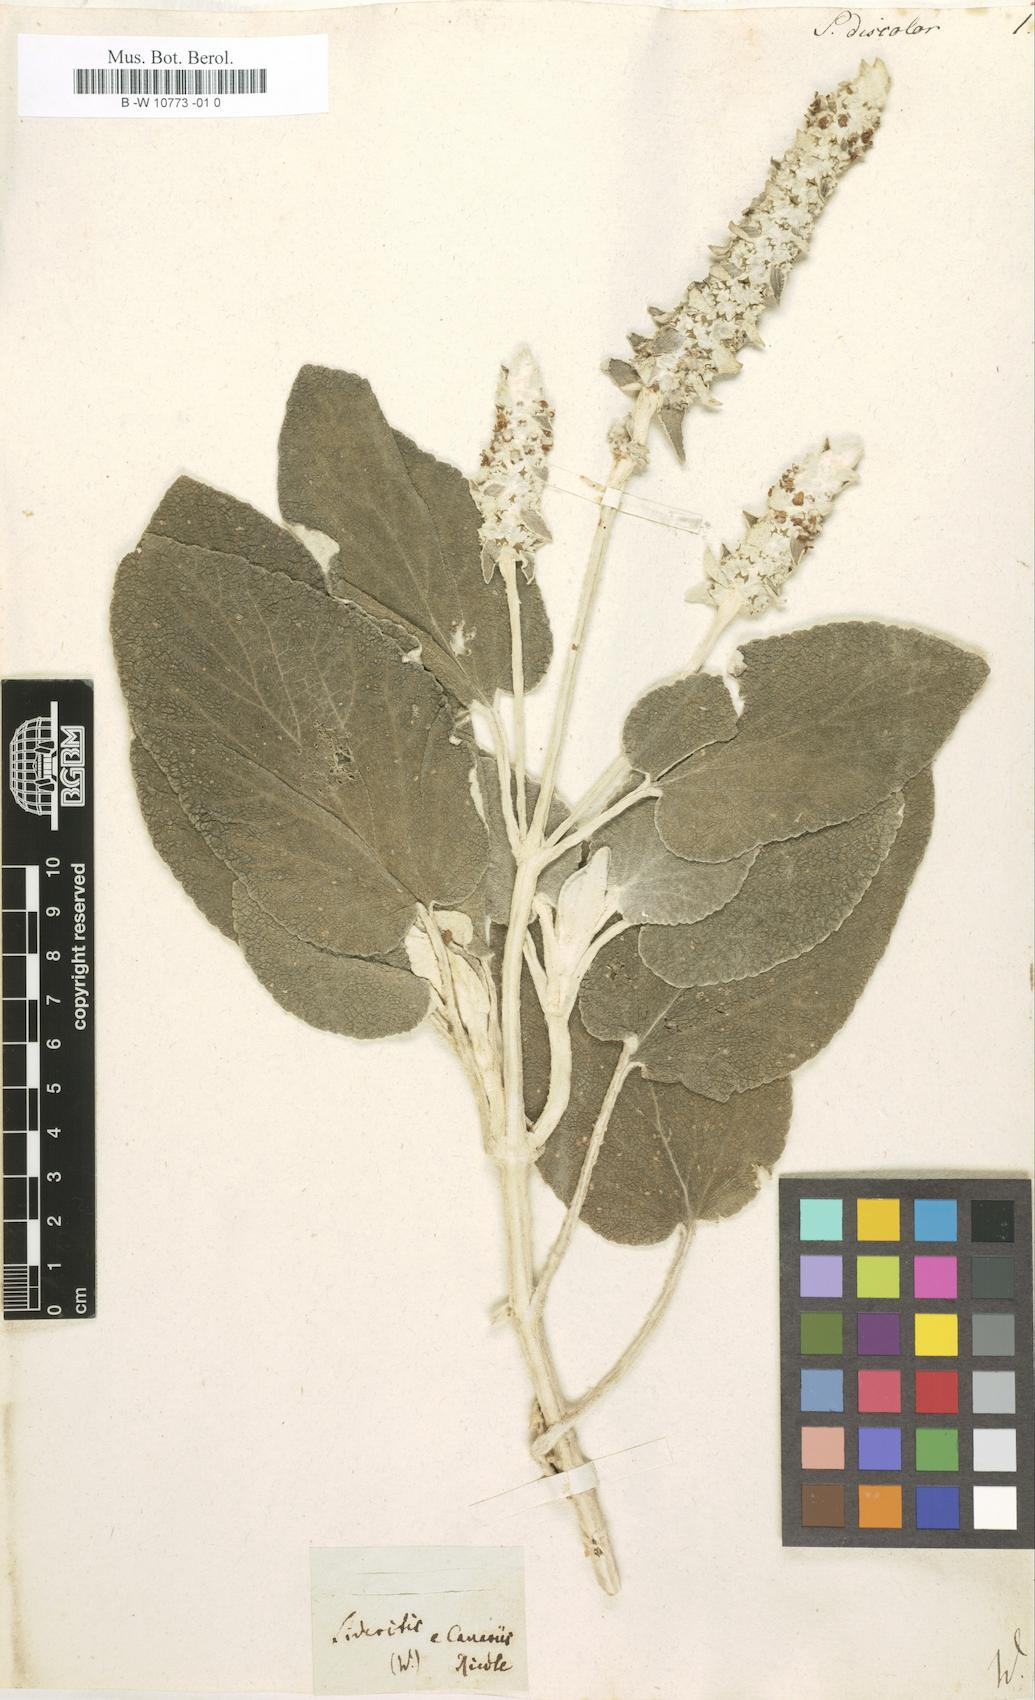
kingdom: Plantae
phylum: Tracheophyta
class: Magnoliopsida
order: Lamiales
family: Lamiaceae
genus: Sideritis
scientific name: Sideritis discolor
